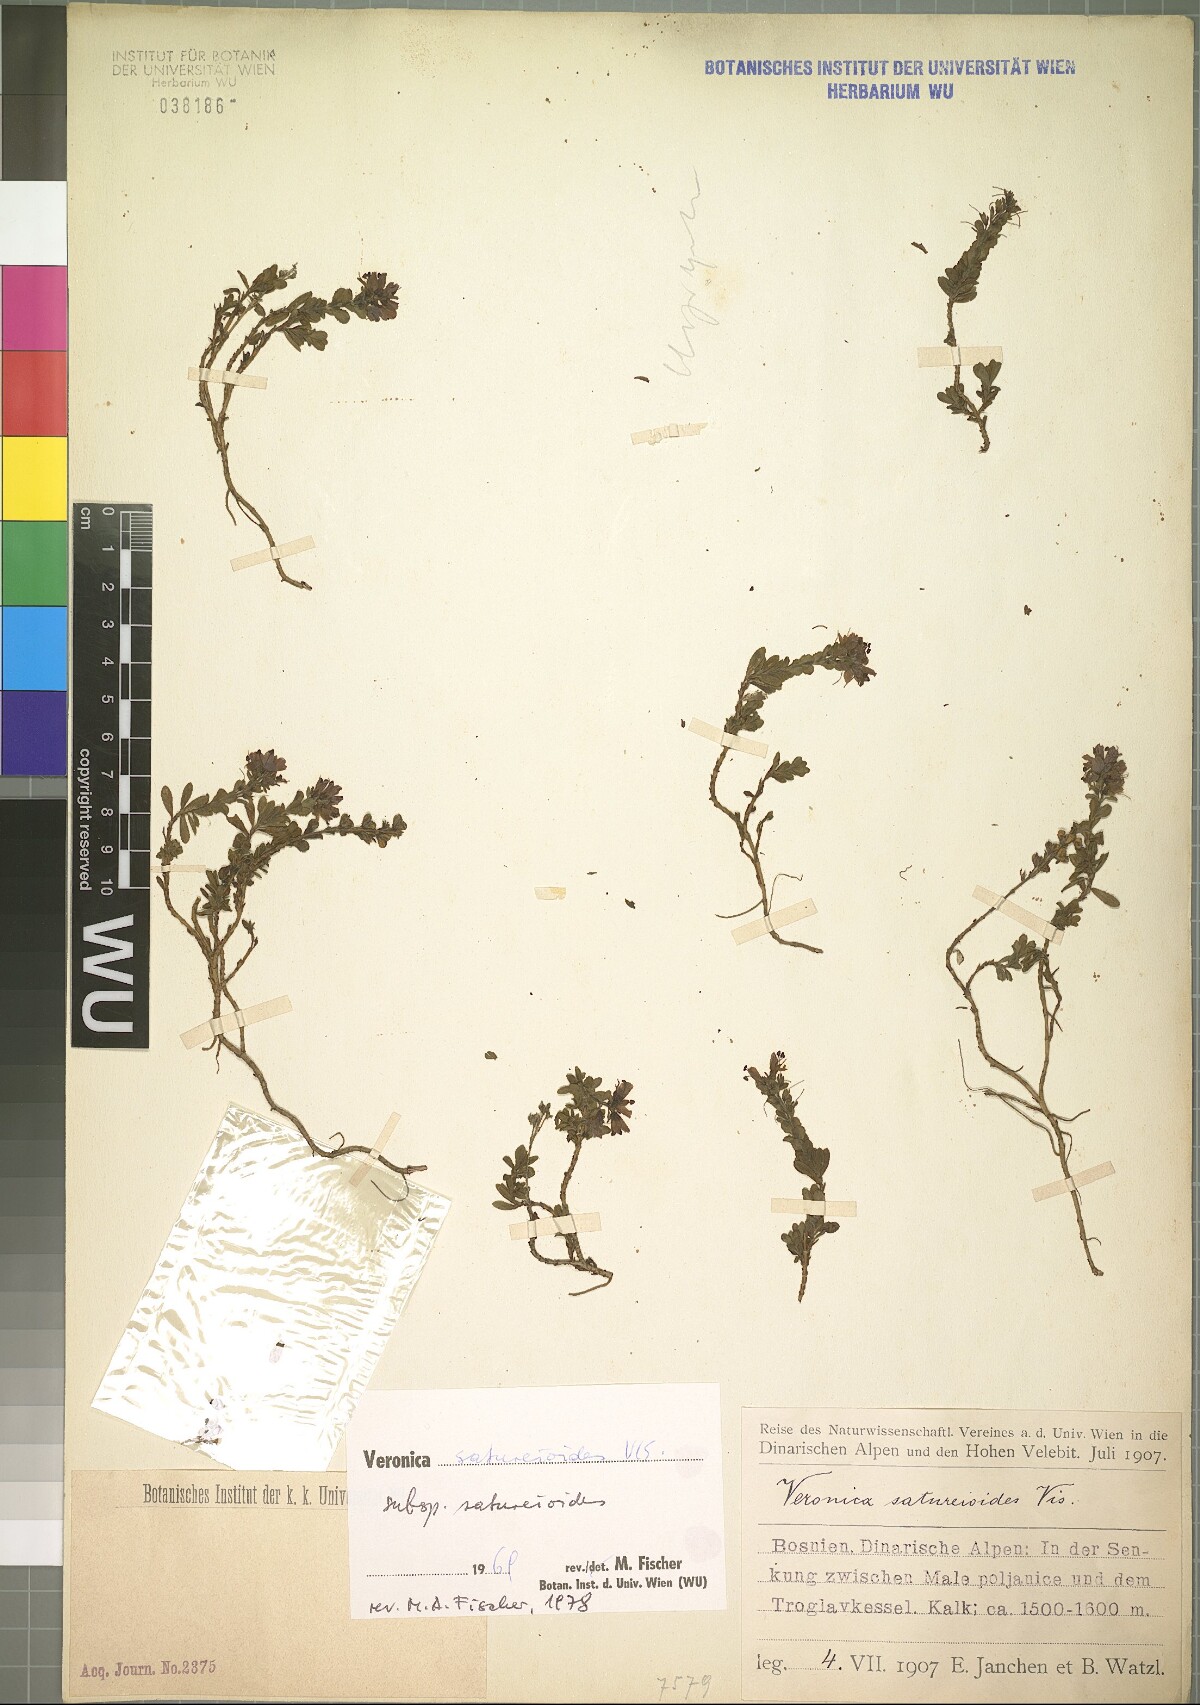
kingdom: Plantae
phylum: Tracheophyta
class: Magnoliopsida
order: Lamiales
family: Plantaginaceae
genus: Veronica
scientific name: Veronica saturejoides
